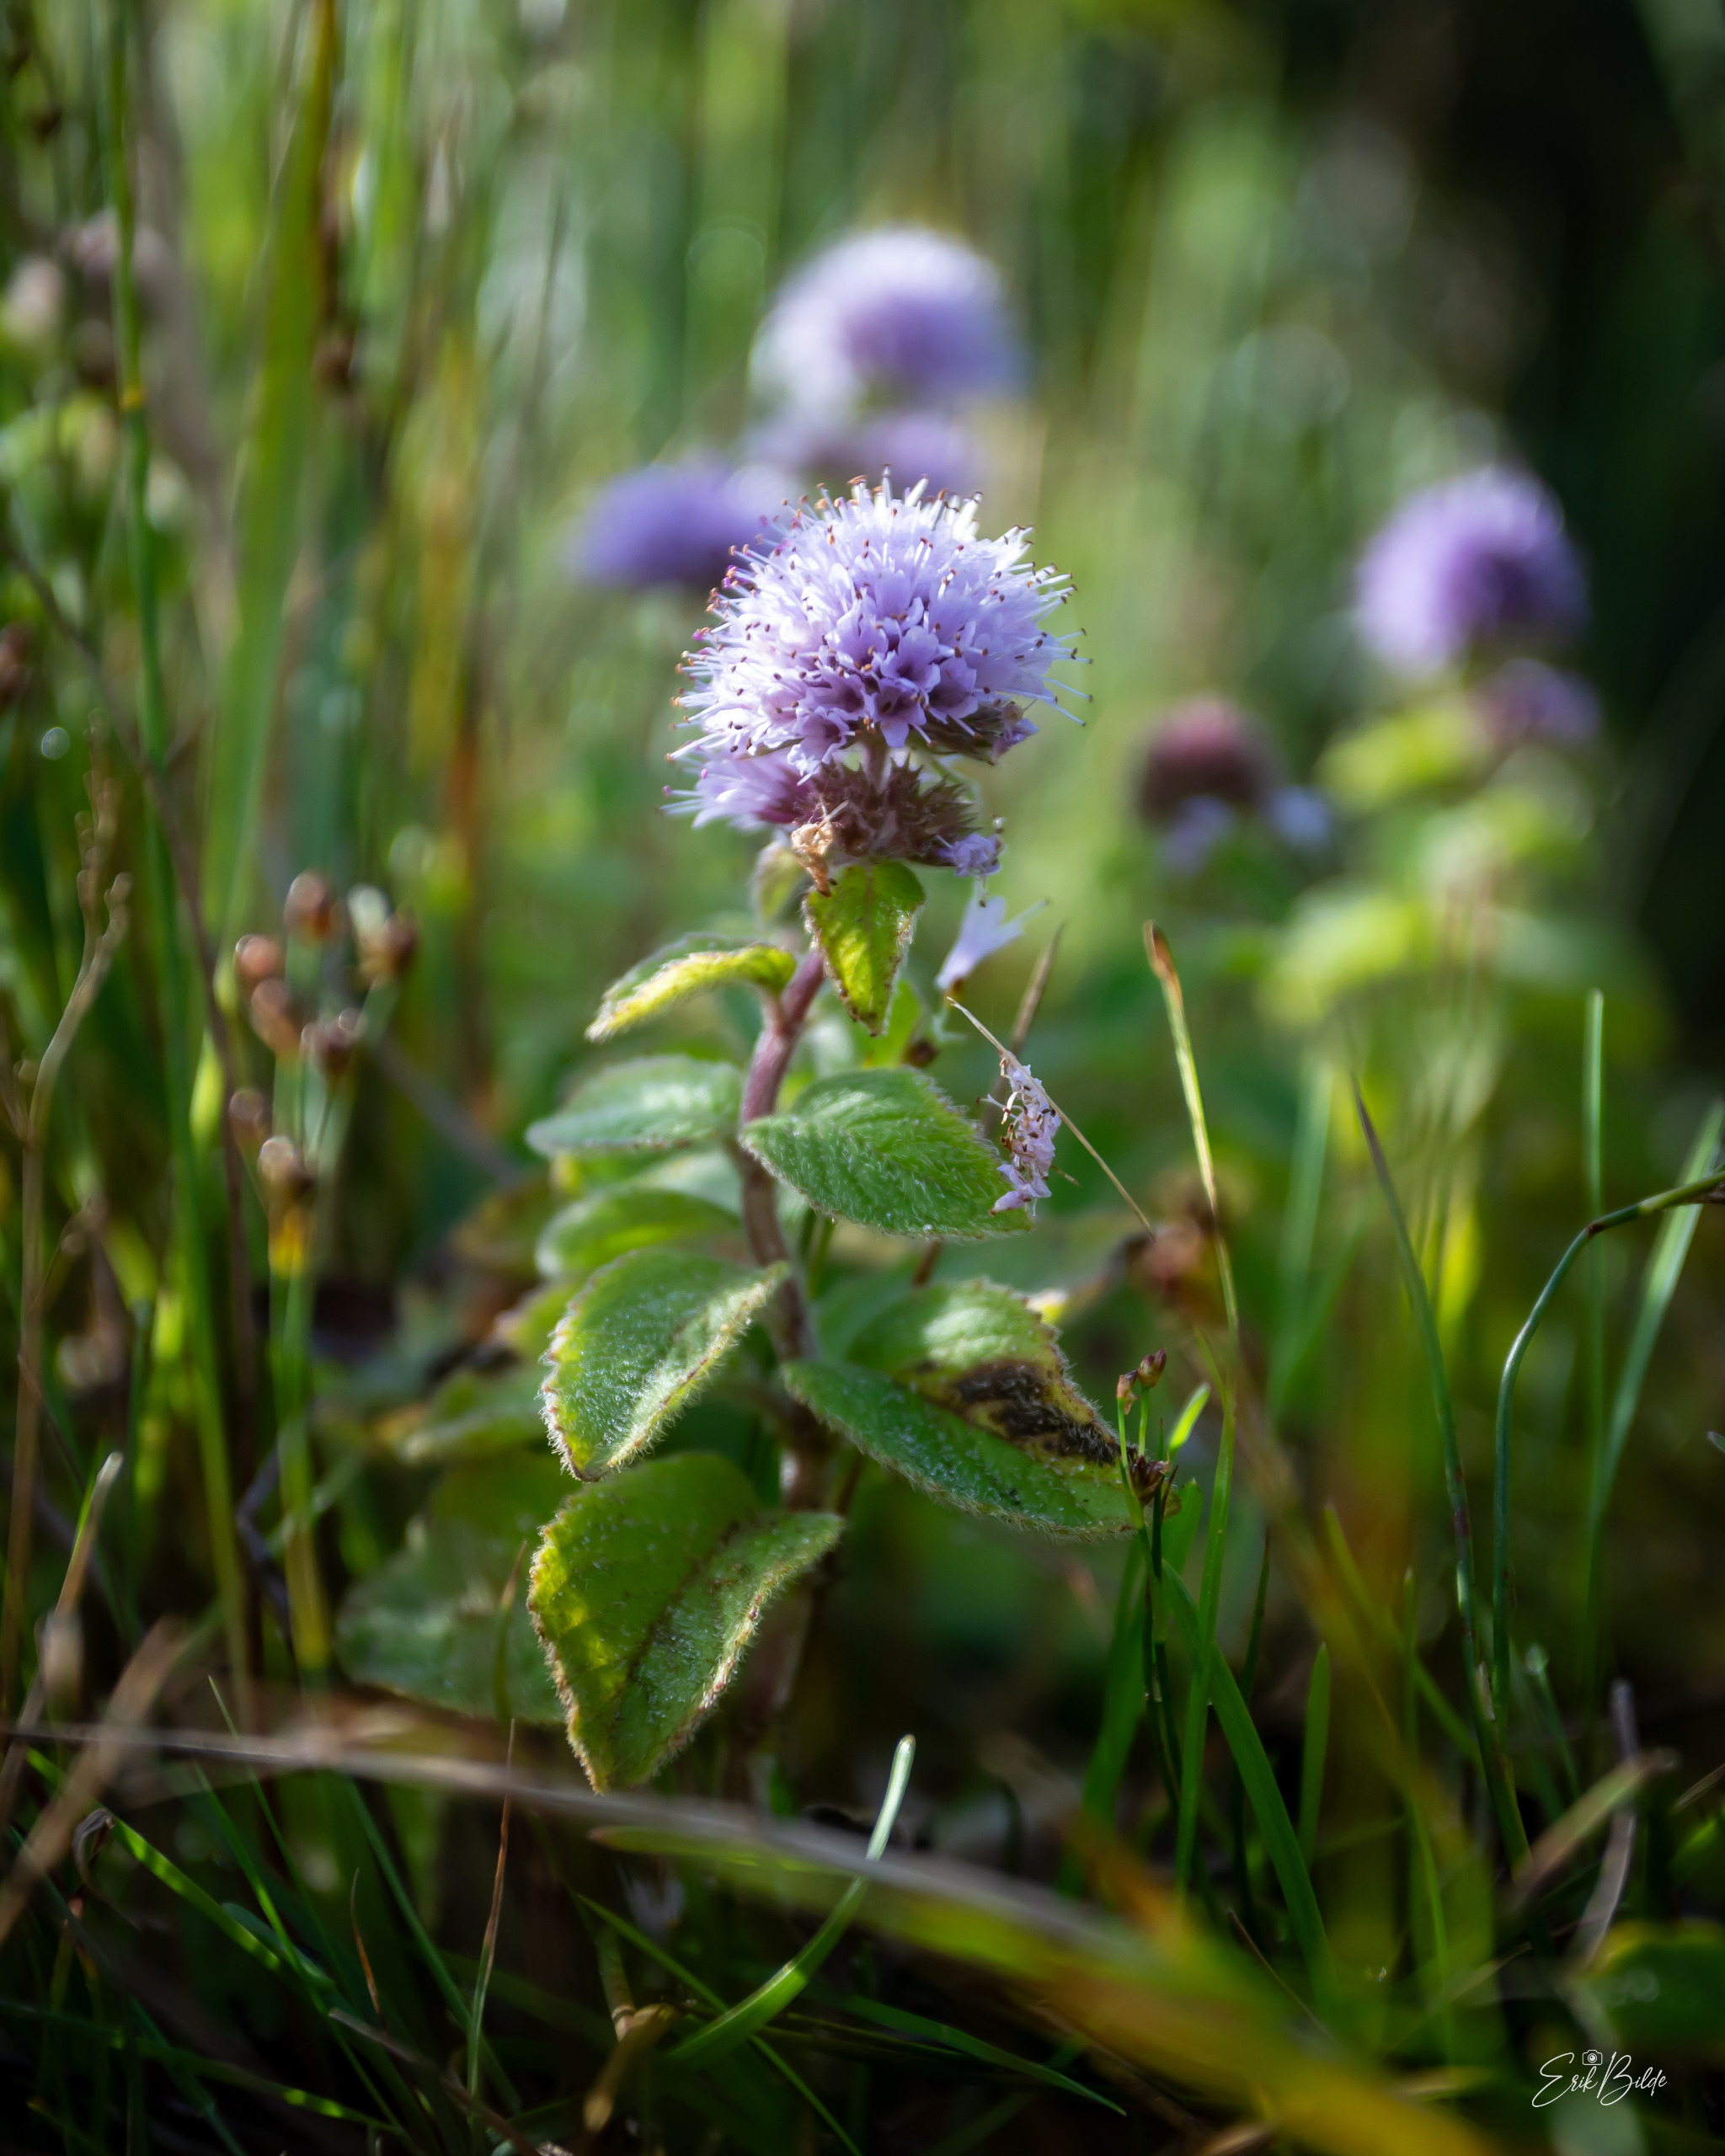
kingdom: Plantae
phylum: Tracheophyta
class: Magnoliopsida
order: Lamiales
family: Lamiaceae
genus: Mentha
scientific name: Mentha aquatica
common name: Vand-mynte
